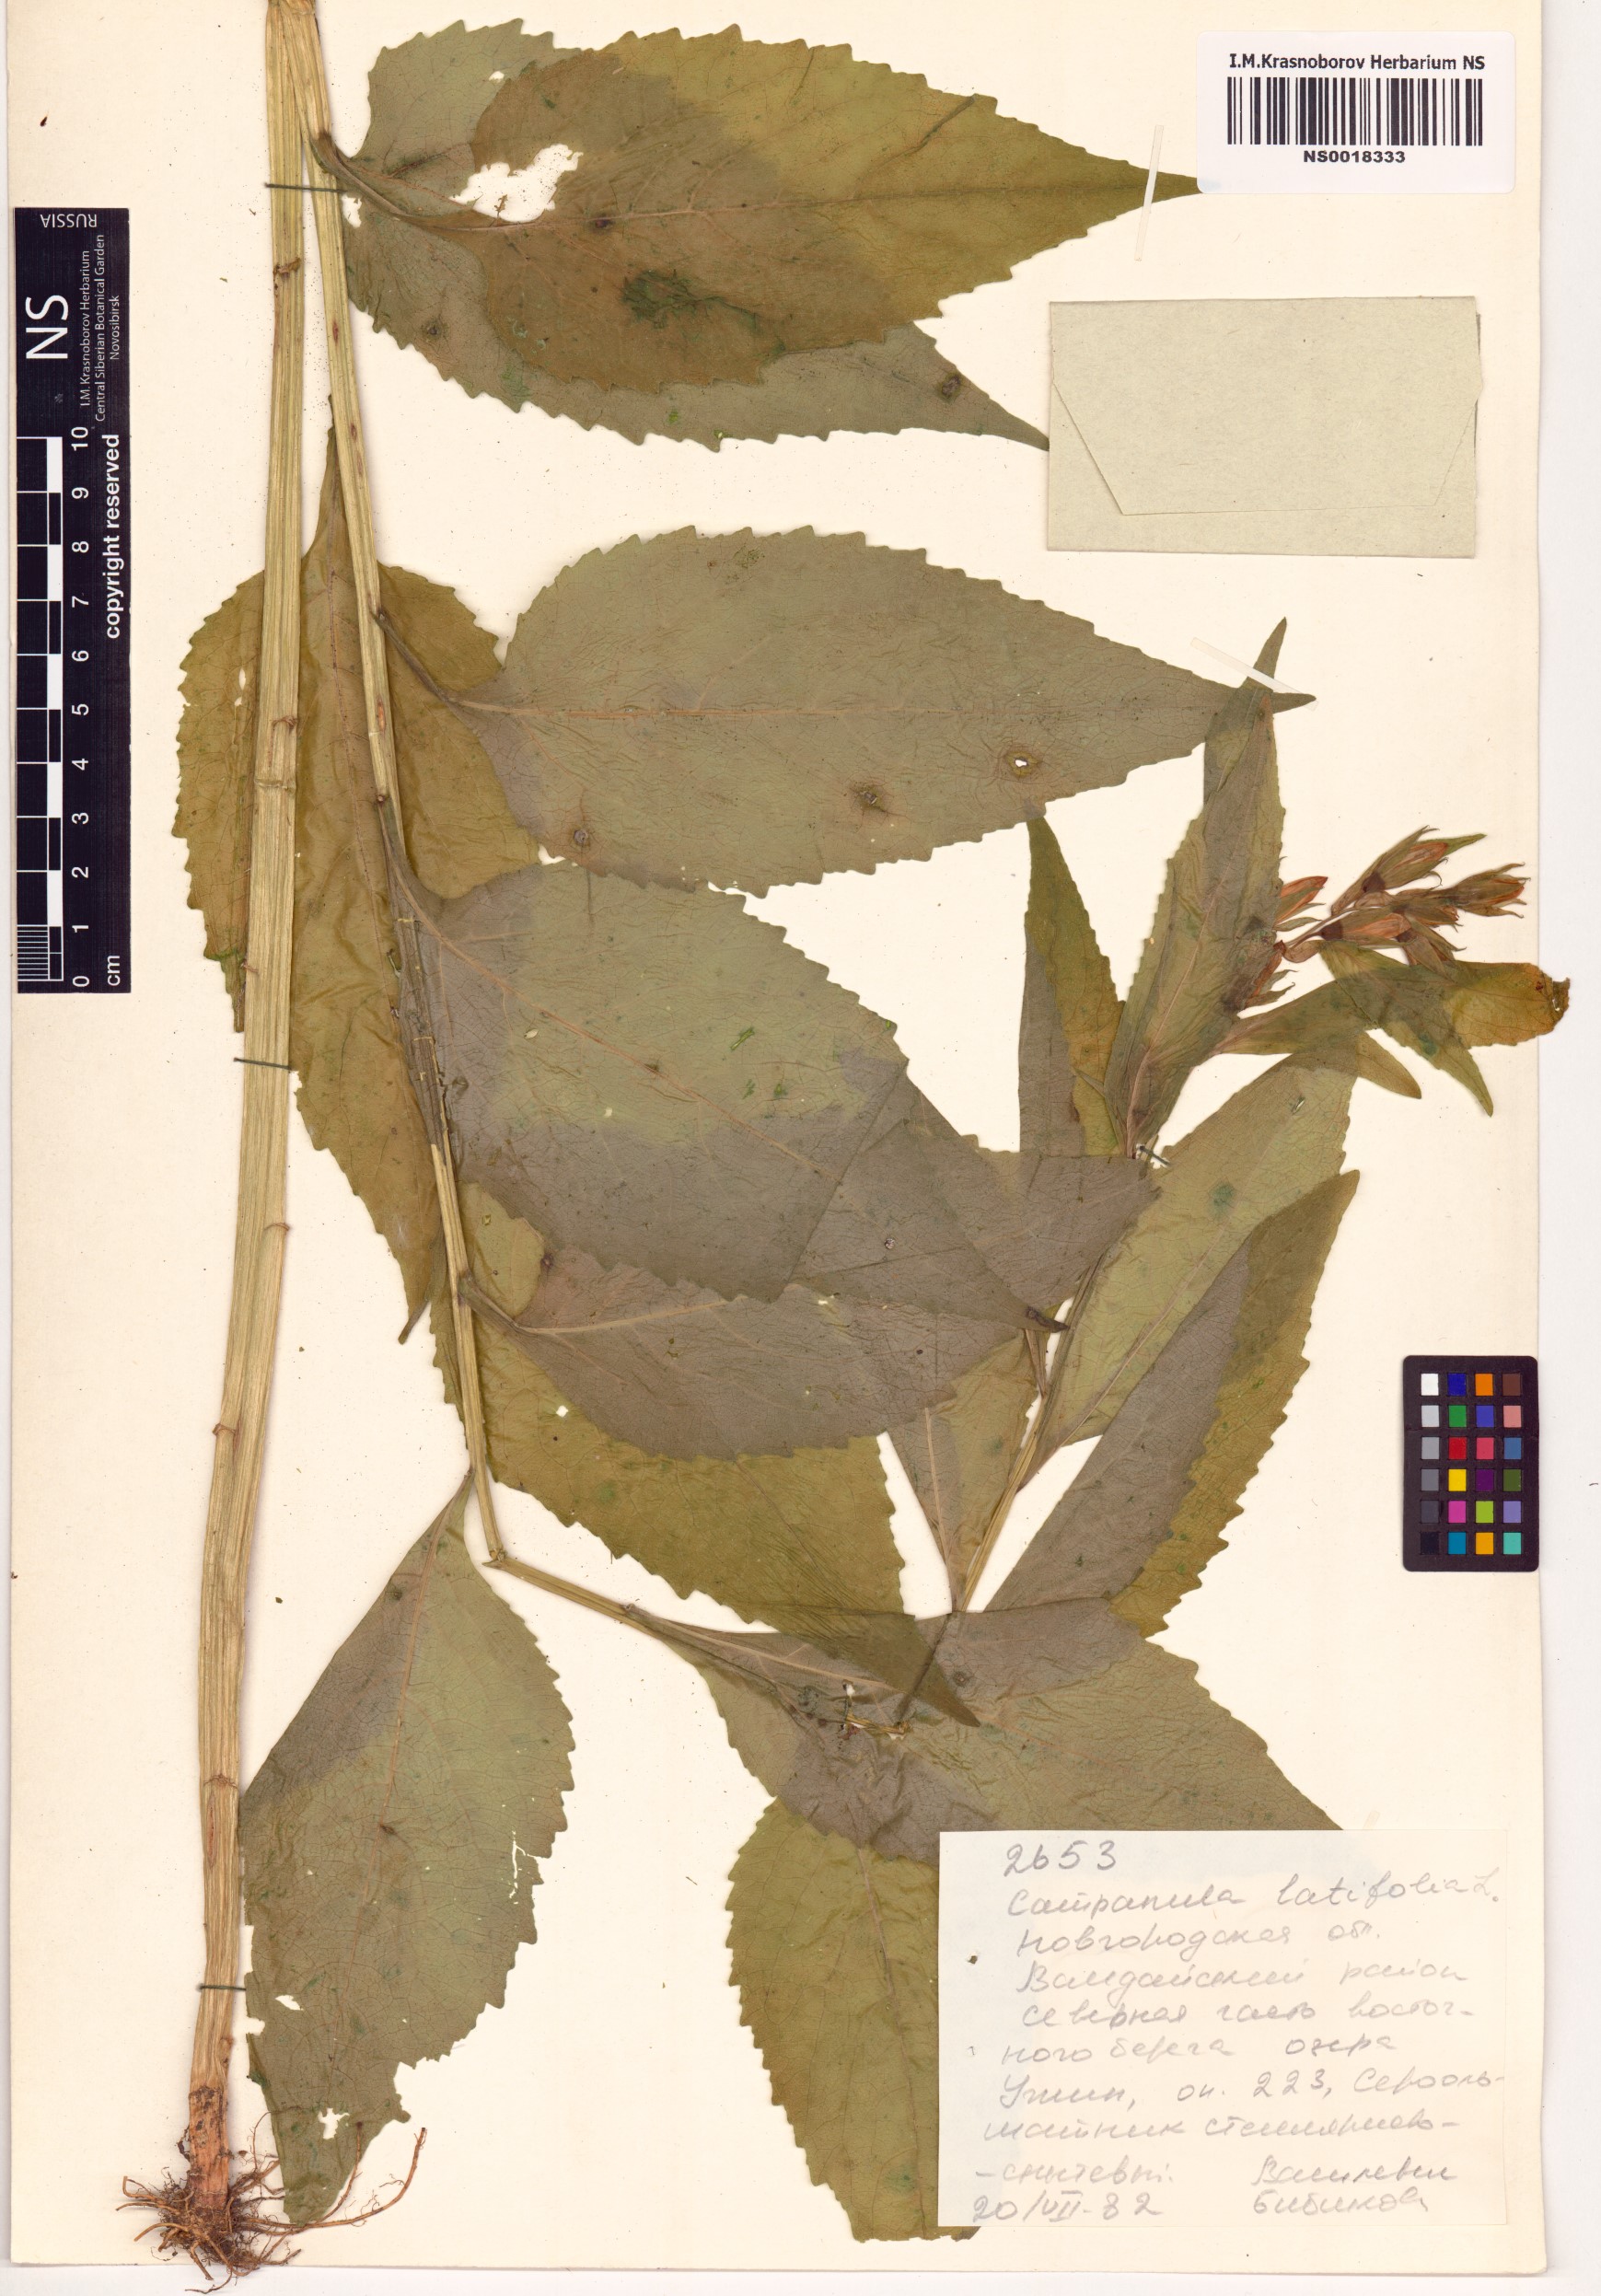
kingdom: Plantae
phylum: Tracheophyta
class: Magnoliopsida
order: Asterales
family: Campanulaceae
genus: Campanula
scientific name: Campanula latifolia
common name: Giant bellflower
